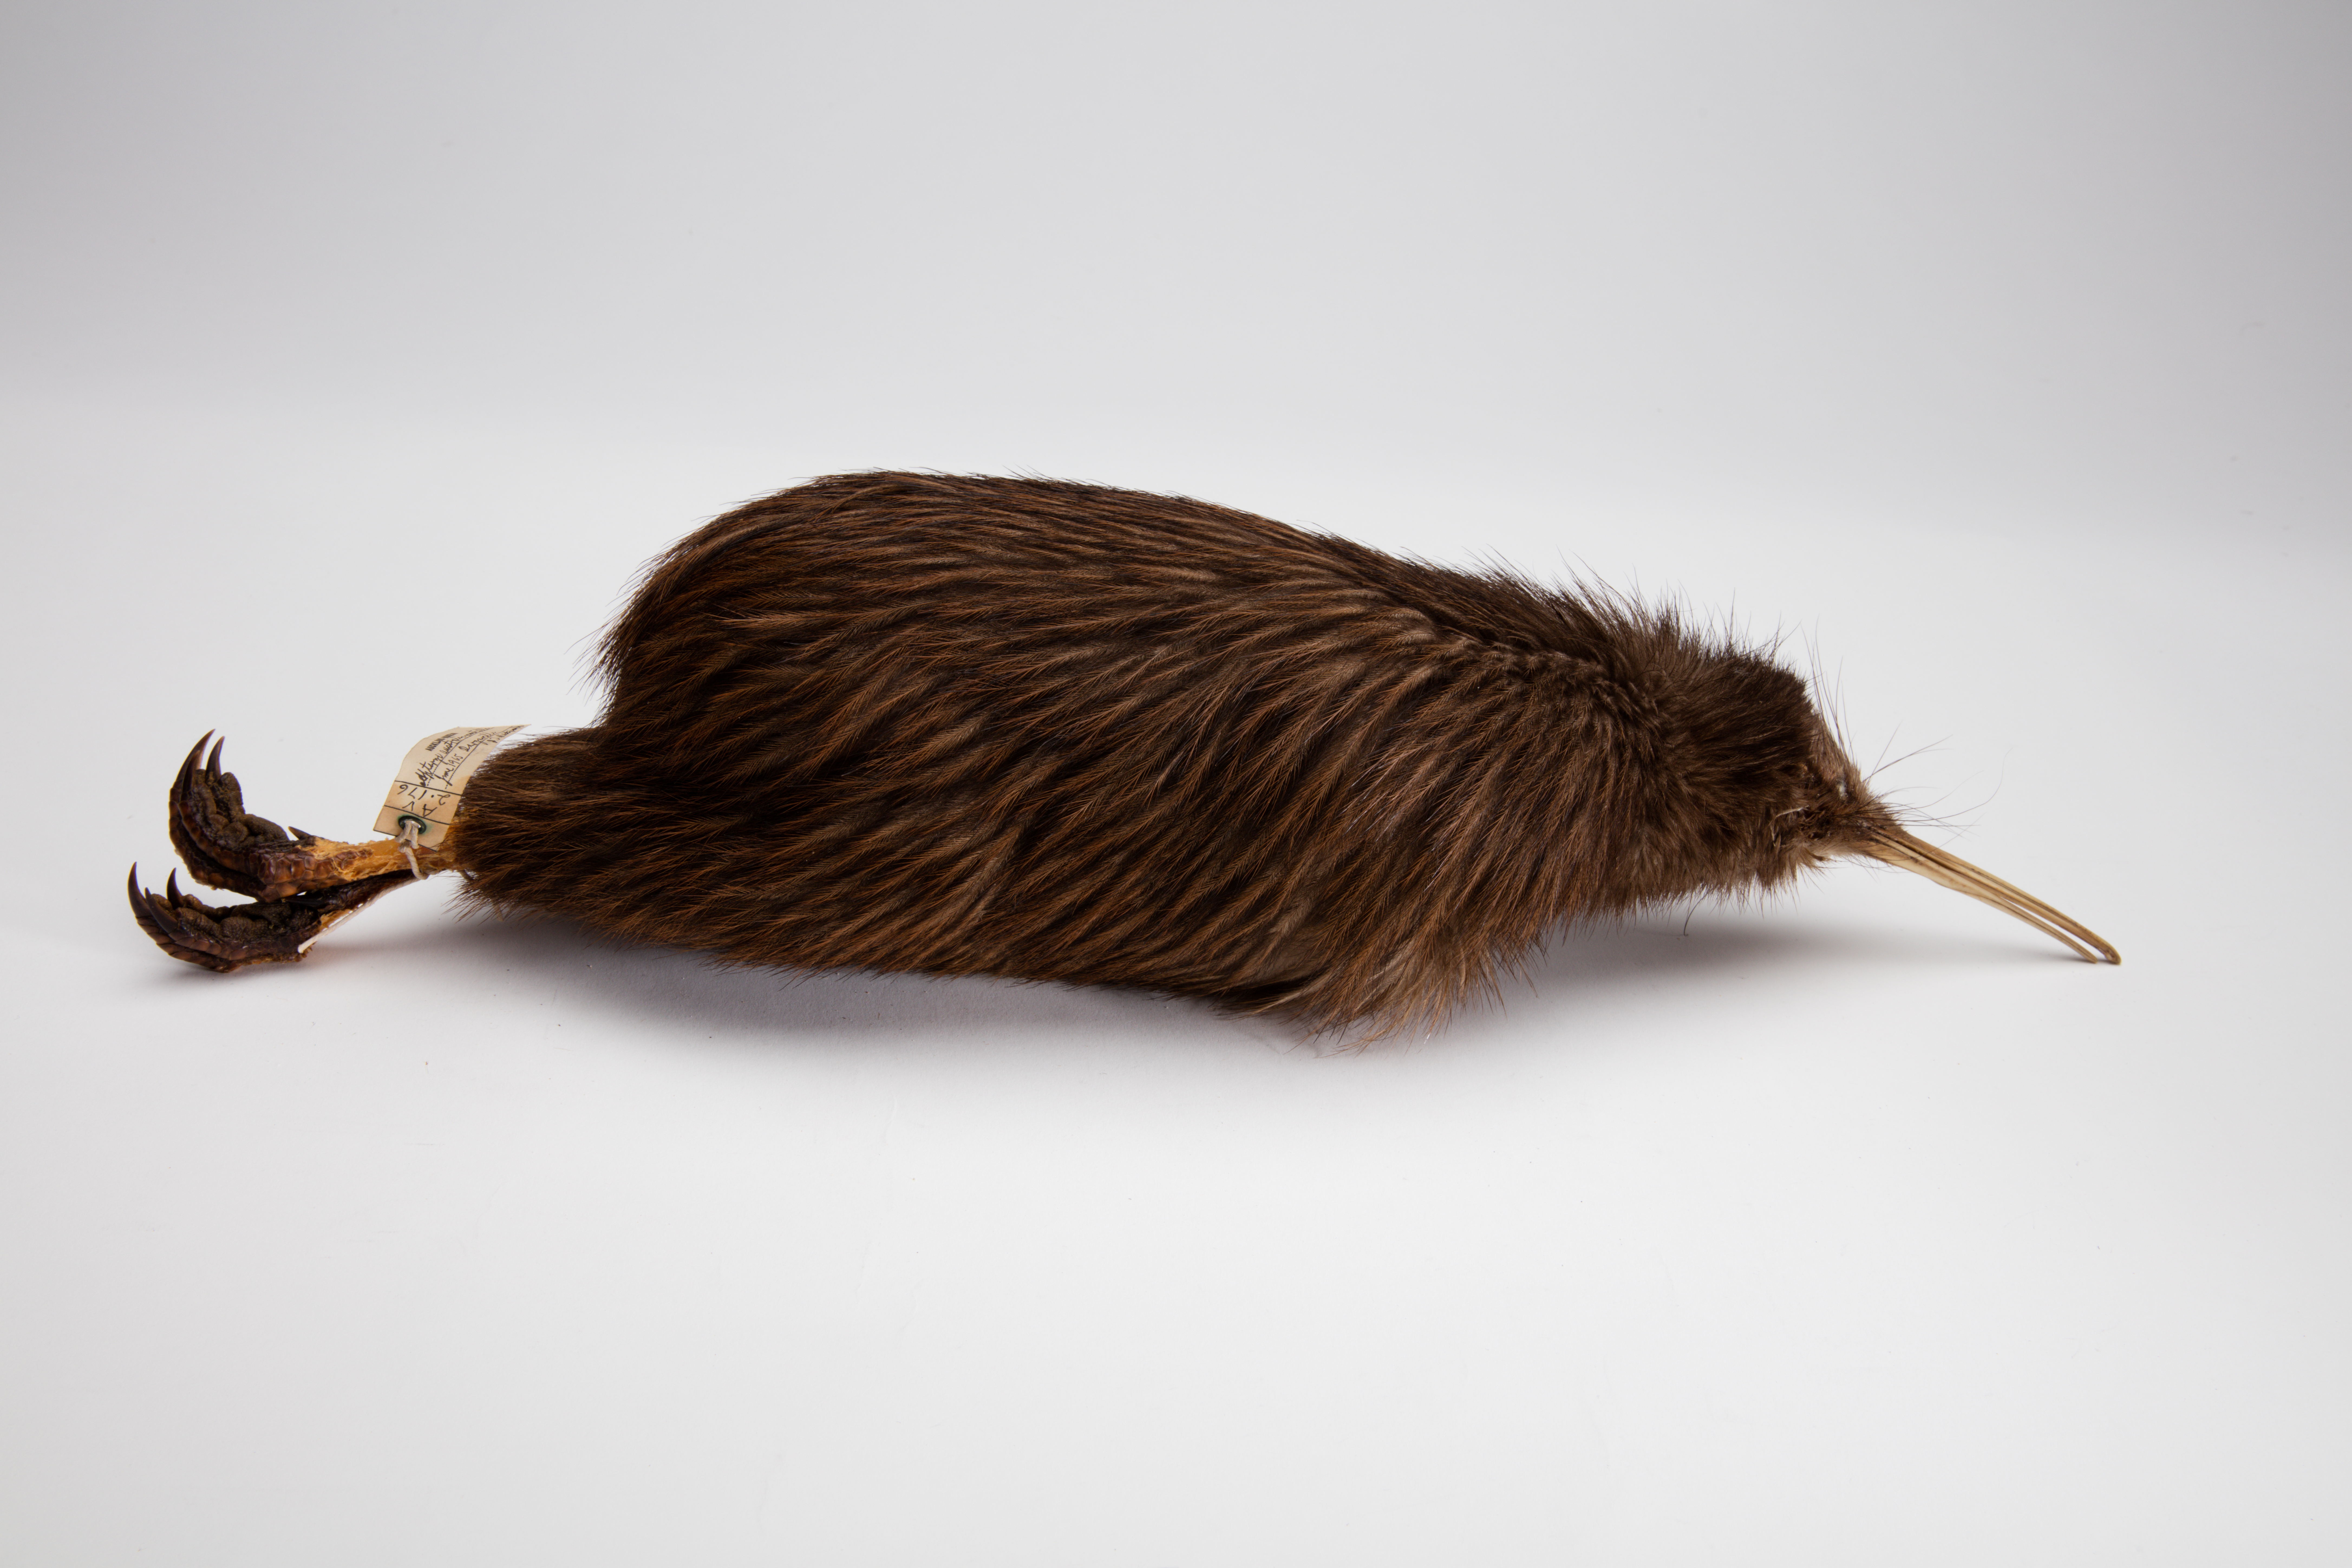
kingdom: Animalia
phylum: Chordata
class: Aves
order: Apterygiformes
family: Apterygidae
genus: Apteryx
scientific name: Apteryx mantelli
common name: North island brown kiwi
